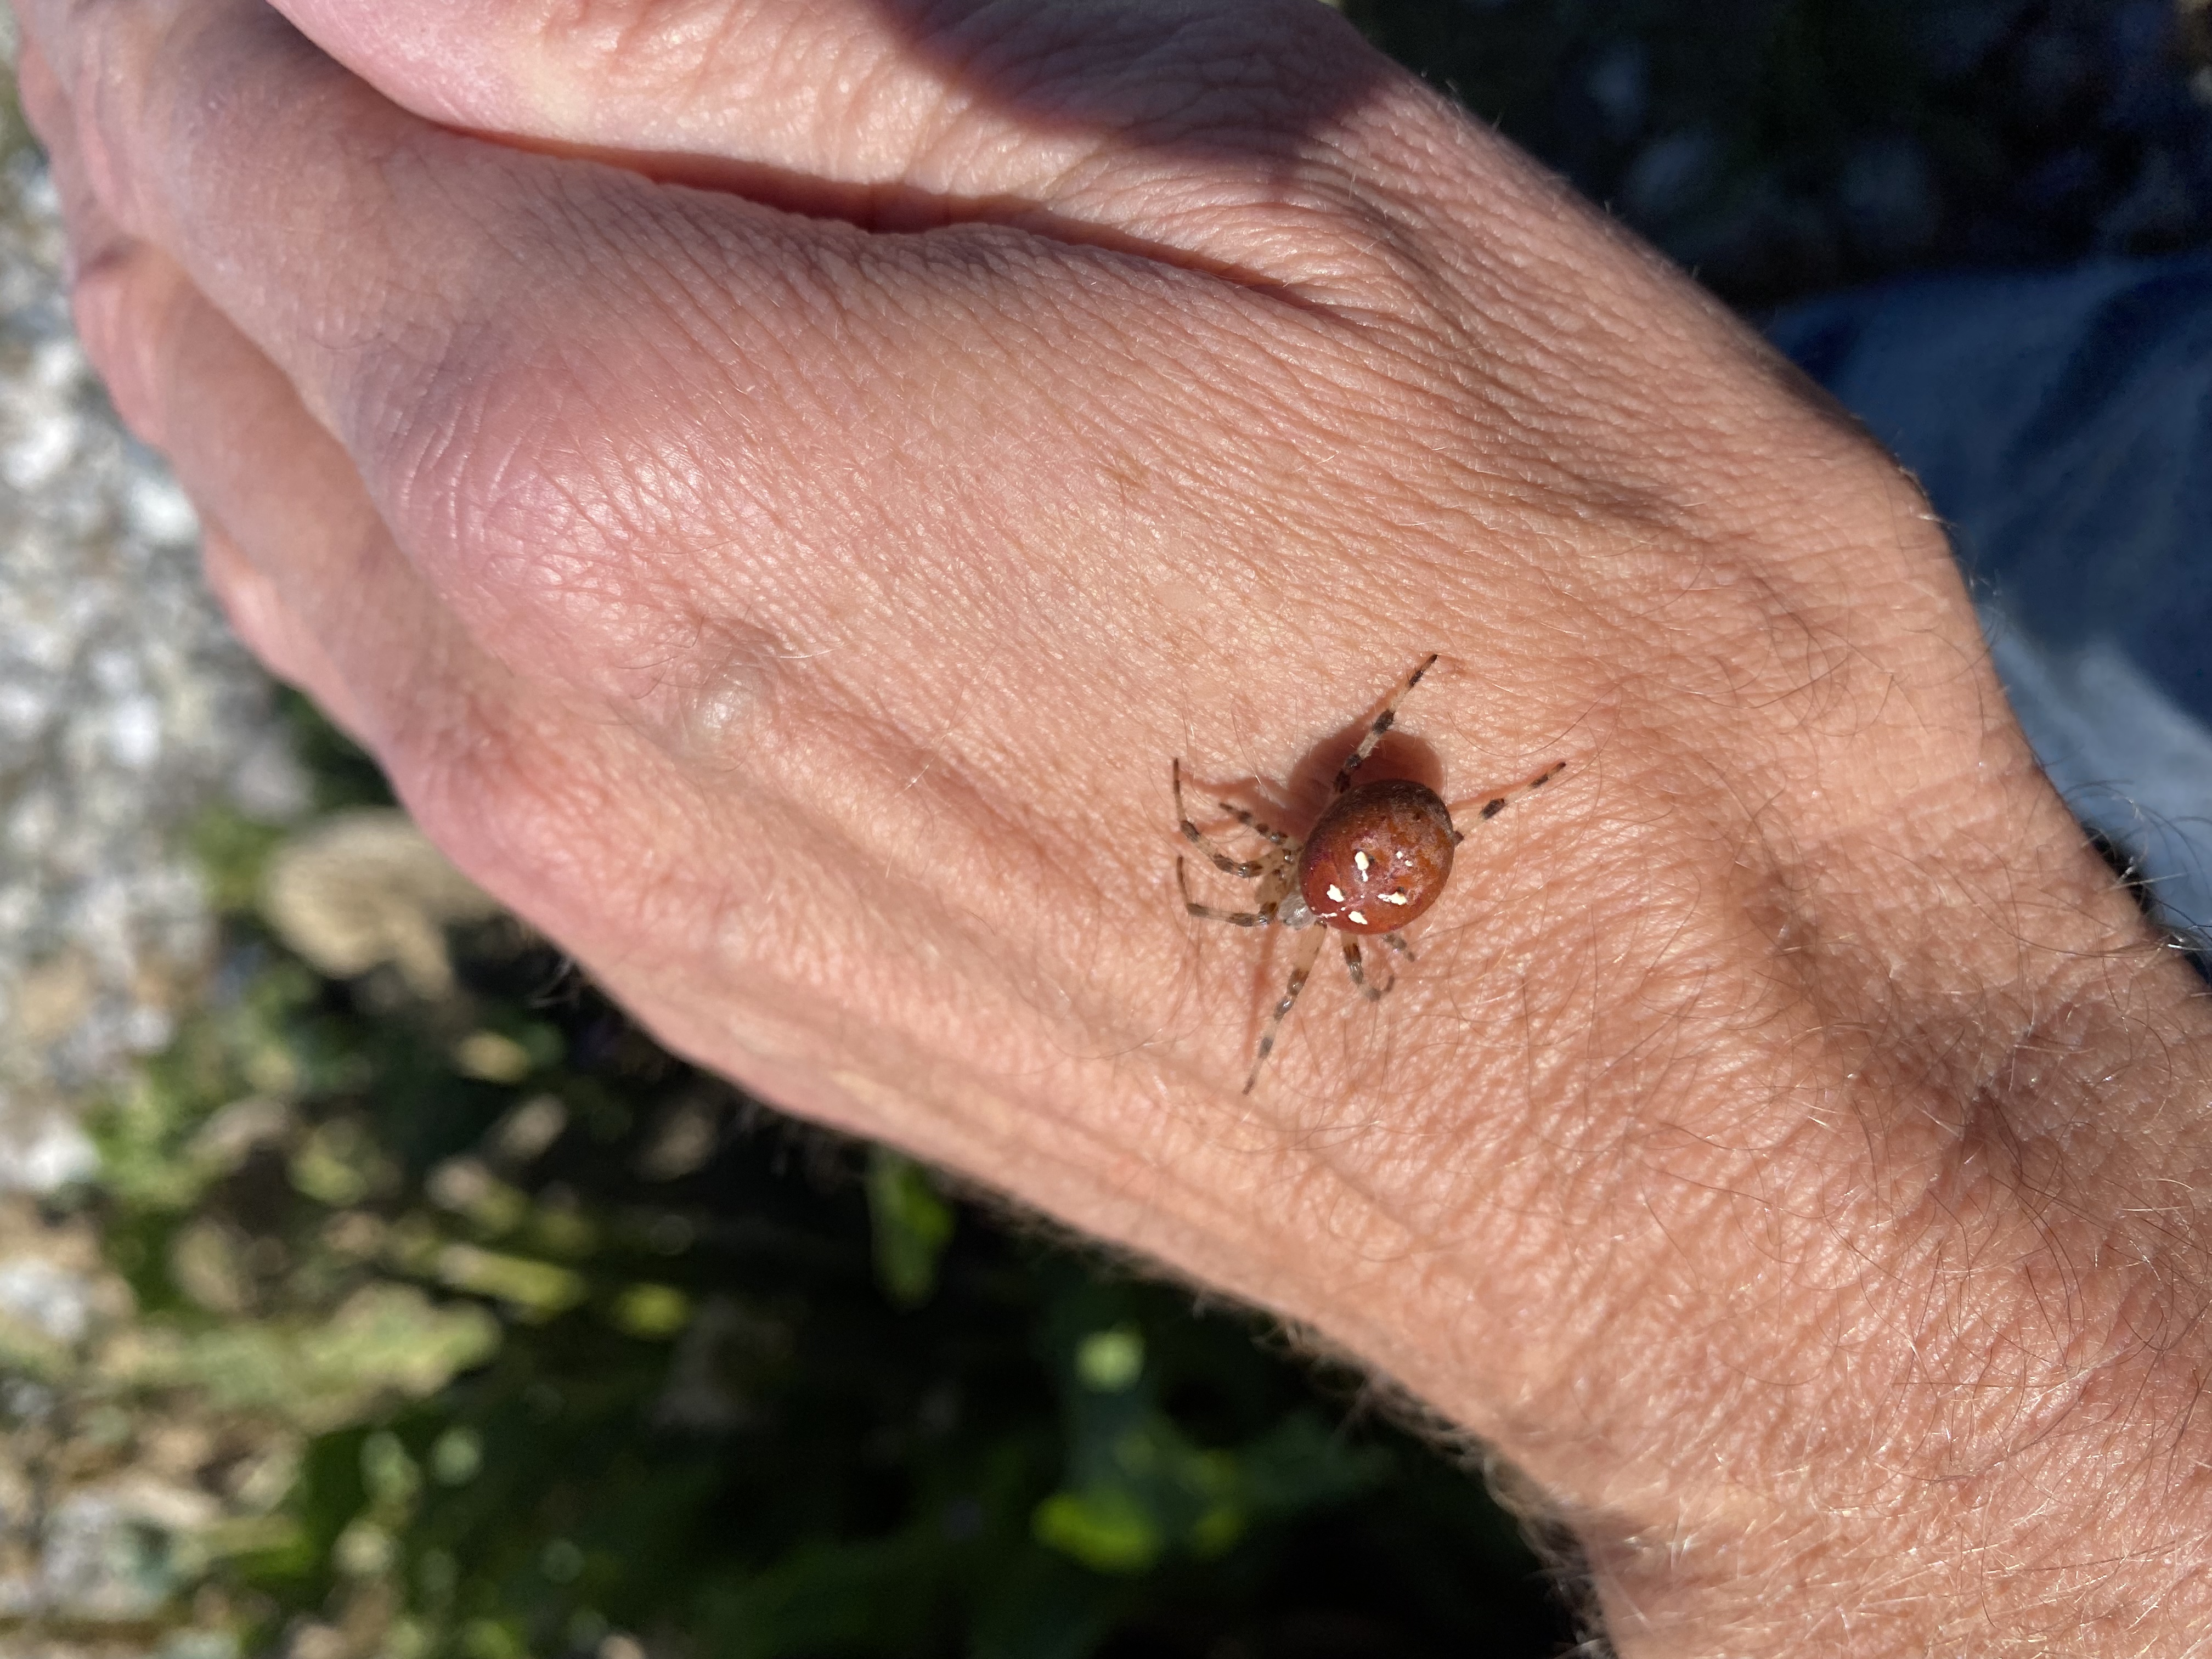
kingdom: Animalia
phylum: Arthropoda
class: Arachnida
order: Araneae
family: Araneidae
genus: Araneus
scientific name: Araneus quadratus
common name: Kvadratedderkop
